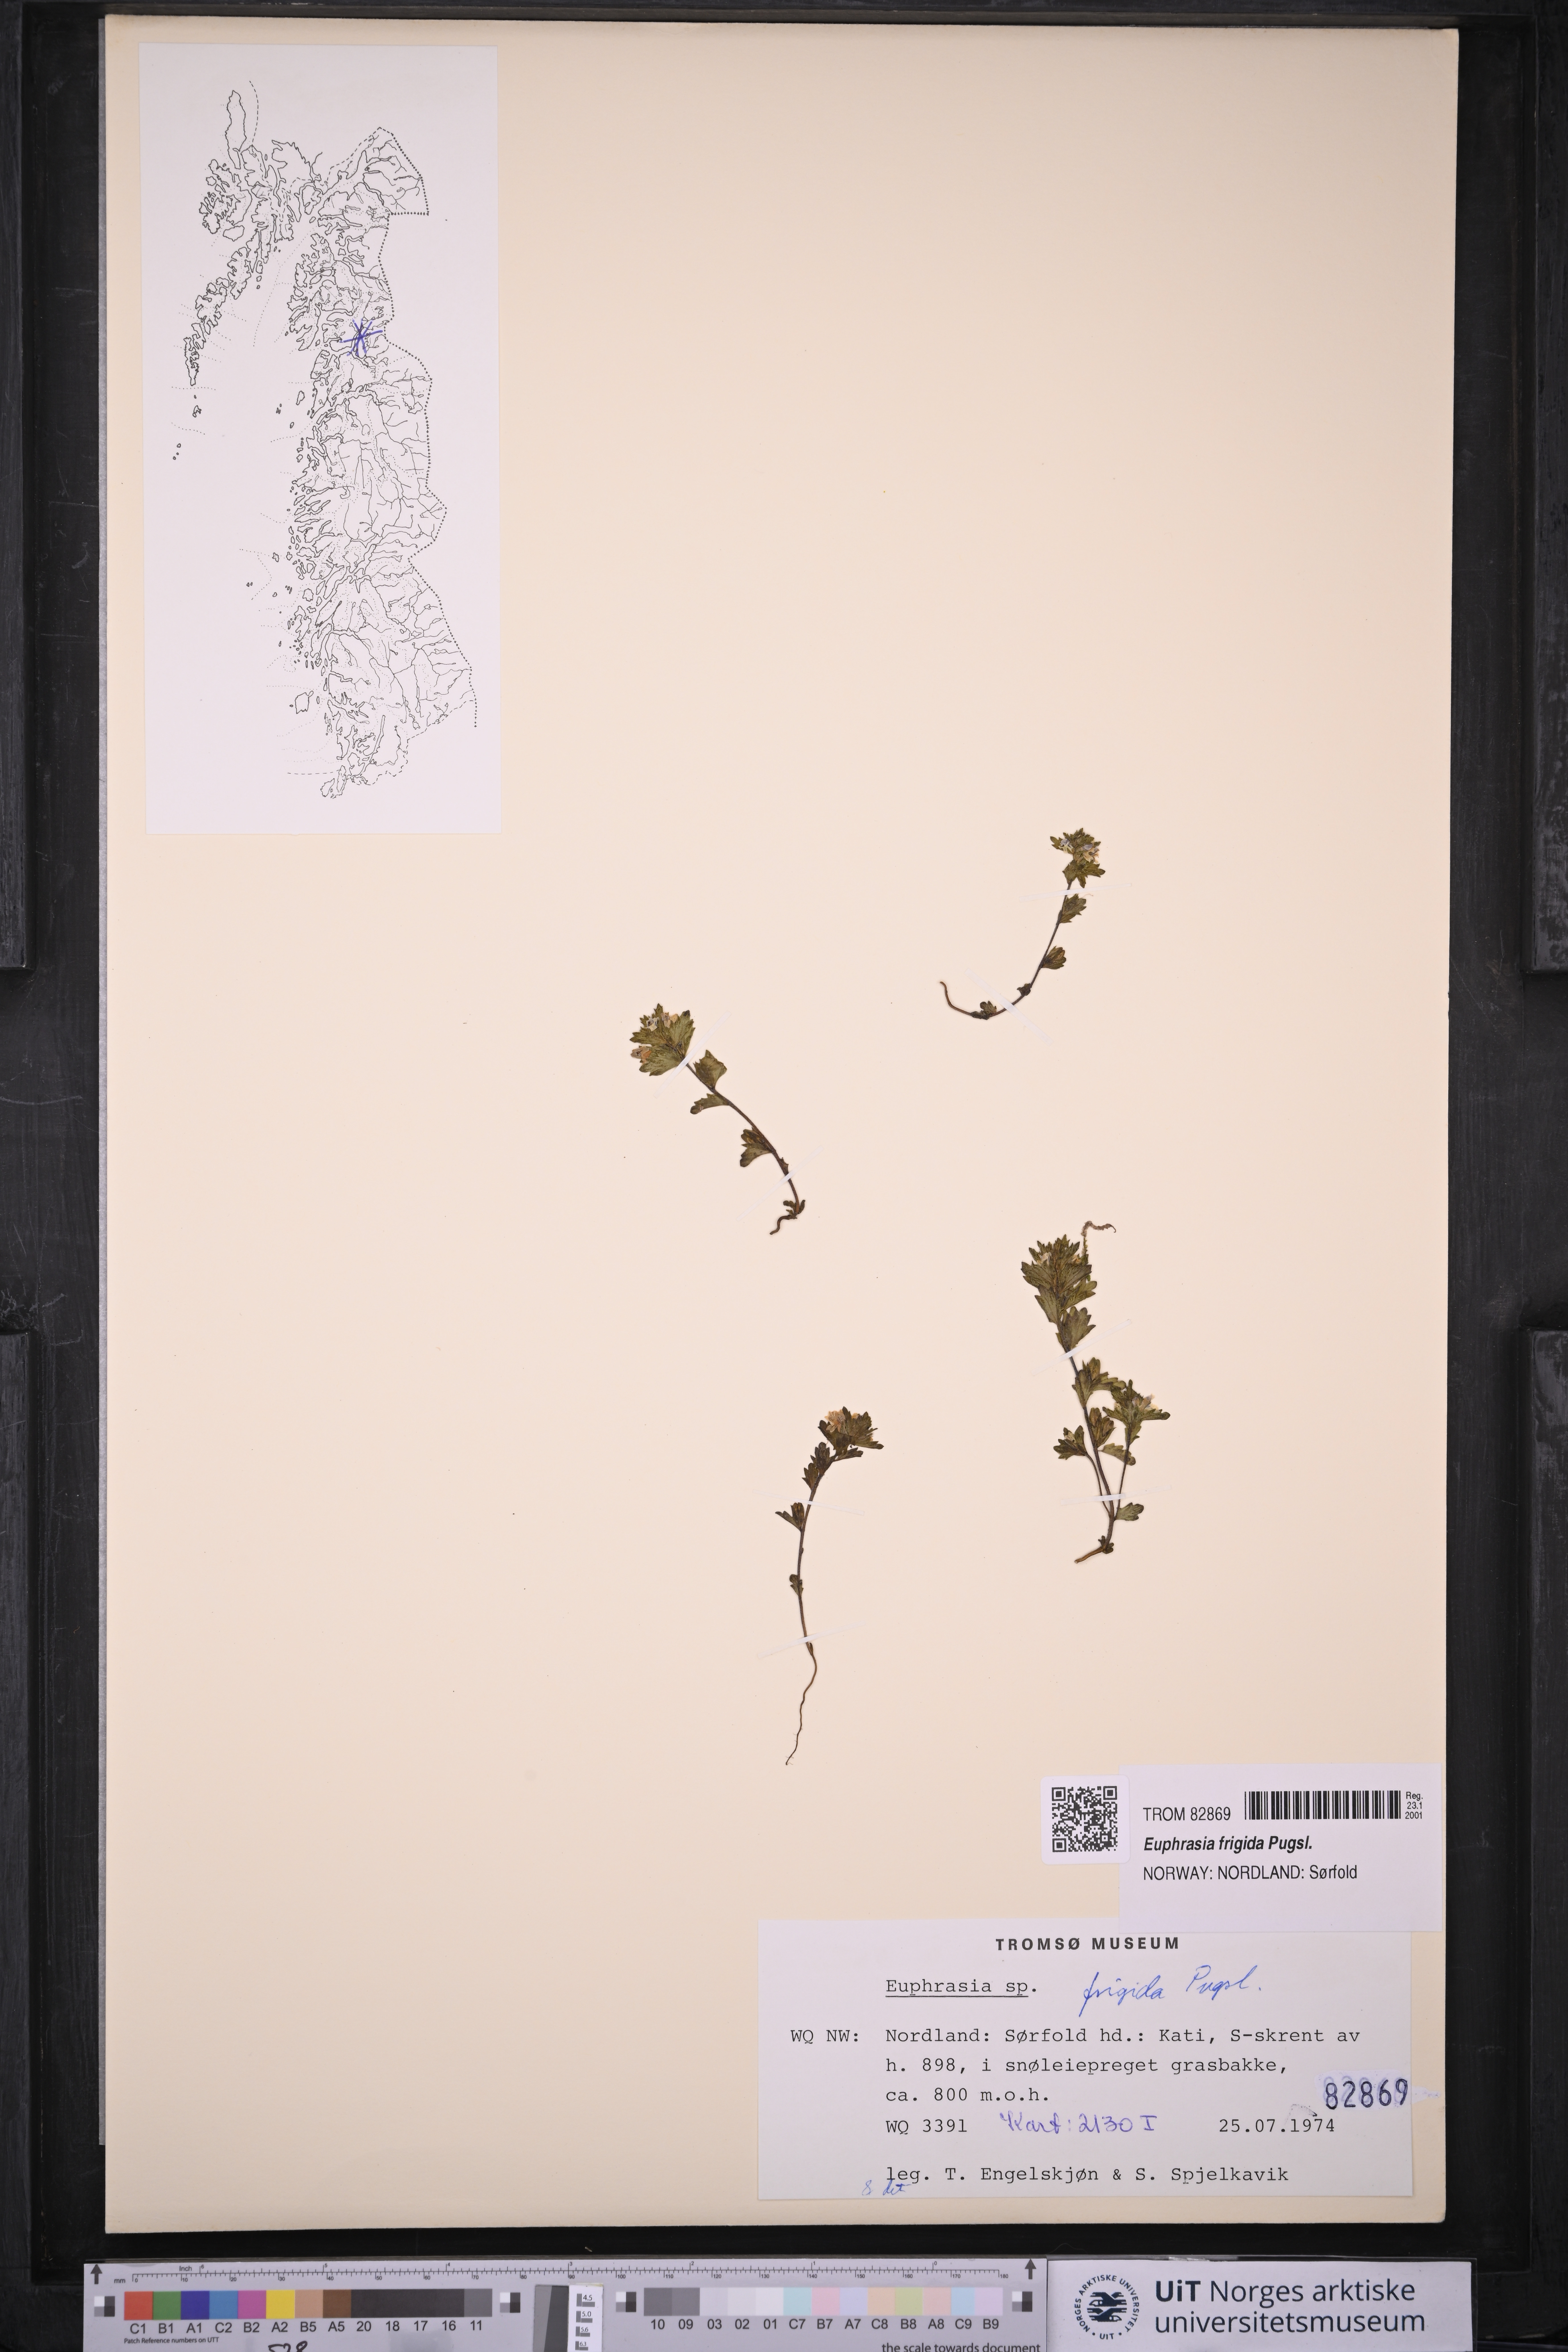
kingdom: Plantae
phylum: Tracheophyta
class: Magnoliopsida
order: Lamiales
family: Orobanchaceae
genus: Euphrasia
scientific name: Euphrasia frigida
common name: An eyebright
